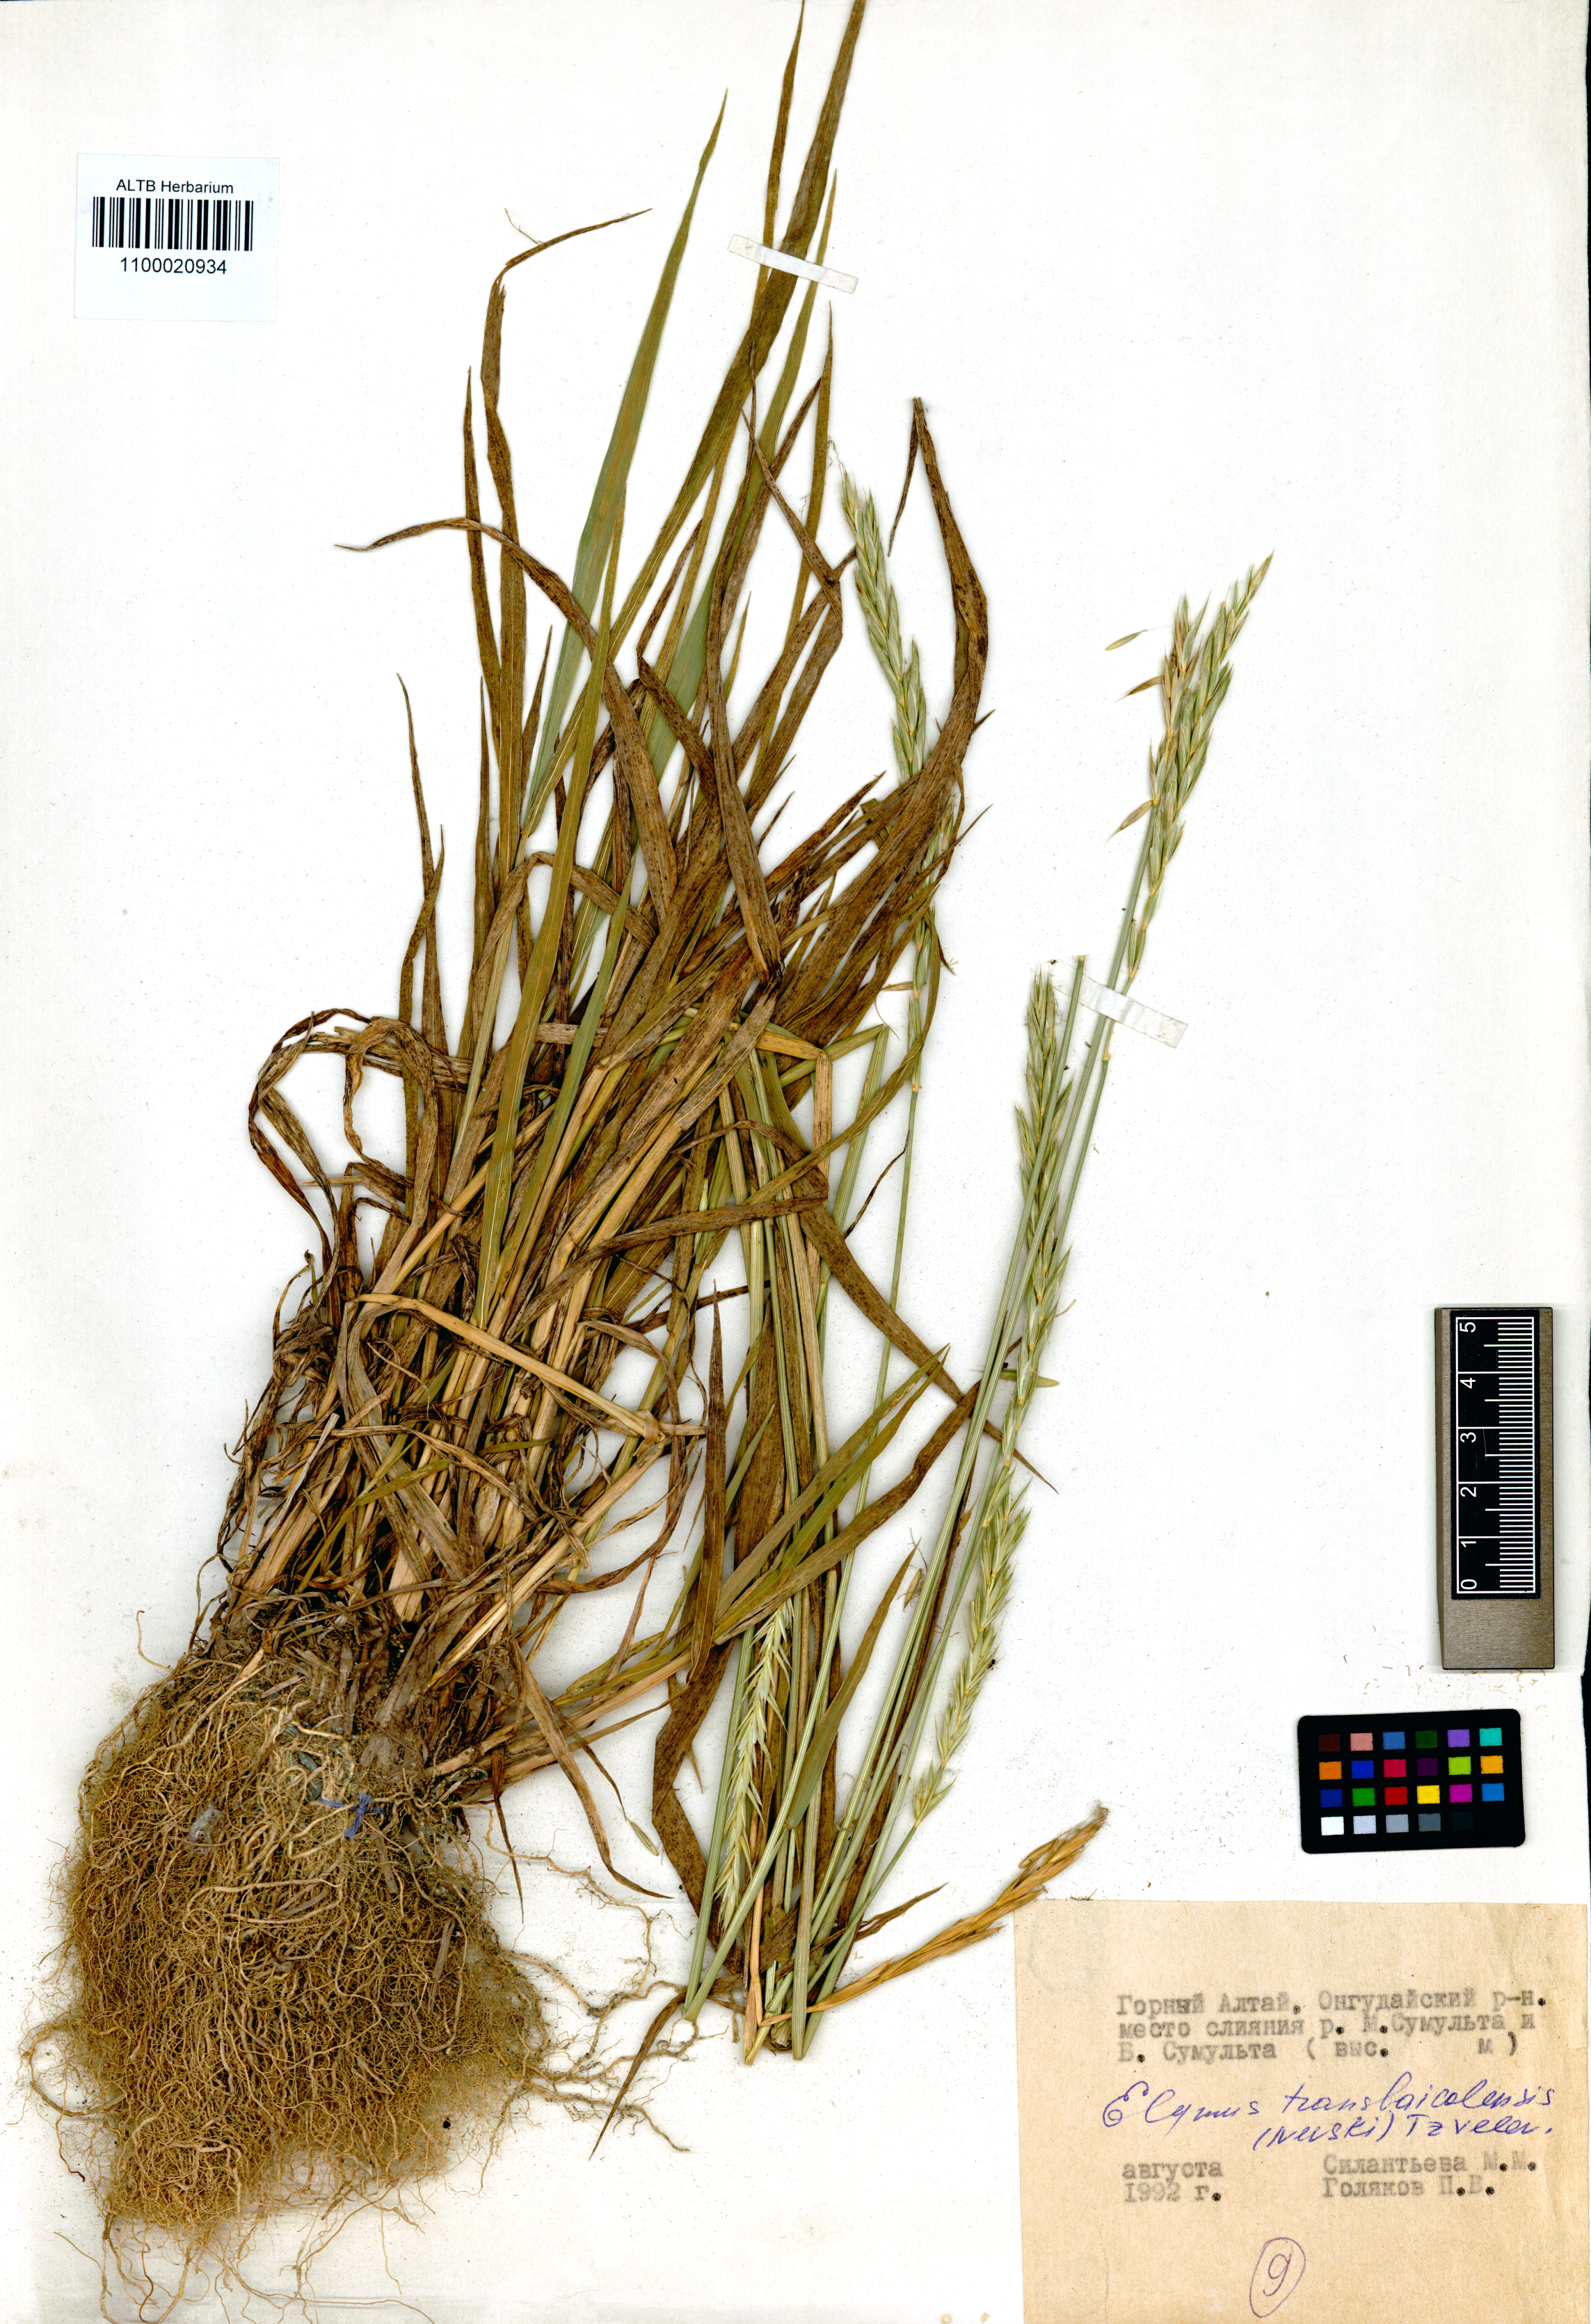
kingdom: Plantae
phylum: Tracheophyta
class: Liliopsida
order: Poales
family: Poaceae
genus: Elymus
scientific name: Elymus mutabilis
